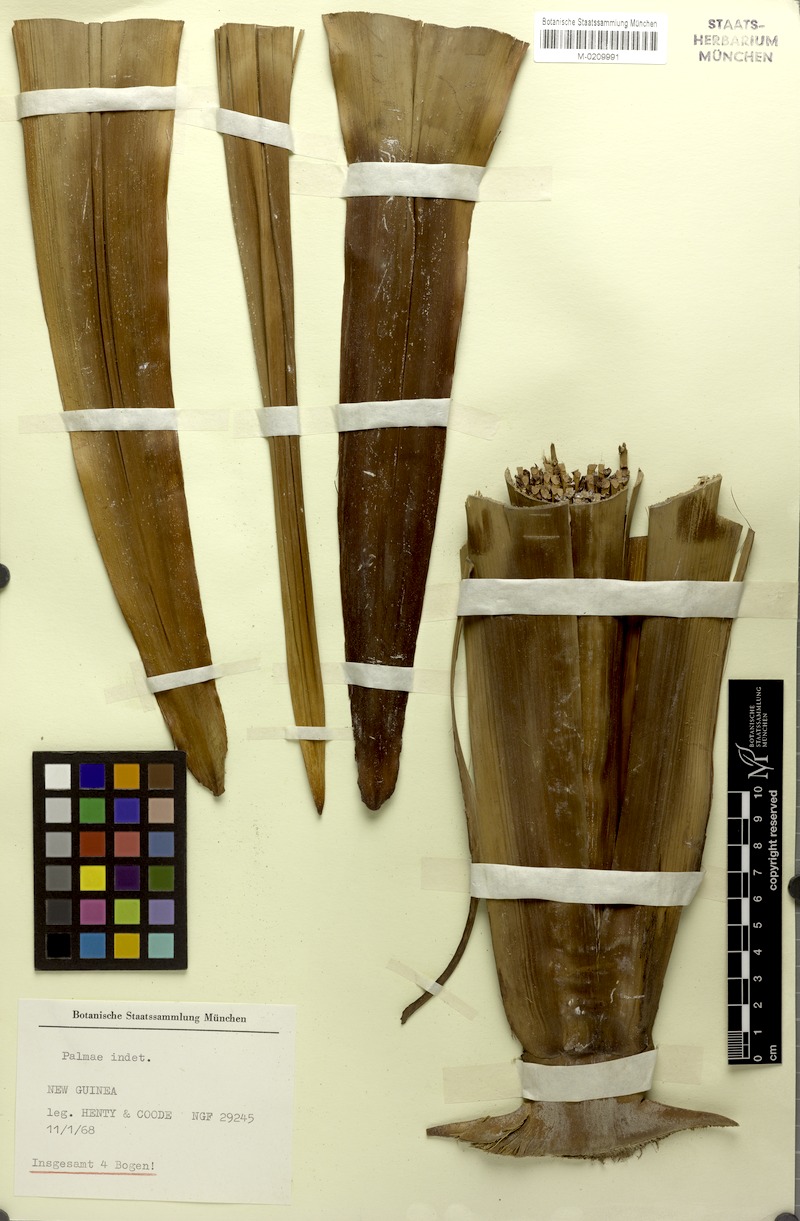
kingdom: Plantae
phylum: Tracheophyta
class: Liliopsida
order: Arecales
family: Arecaceae
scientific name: Arecaceae
